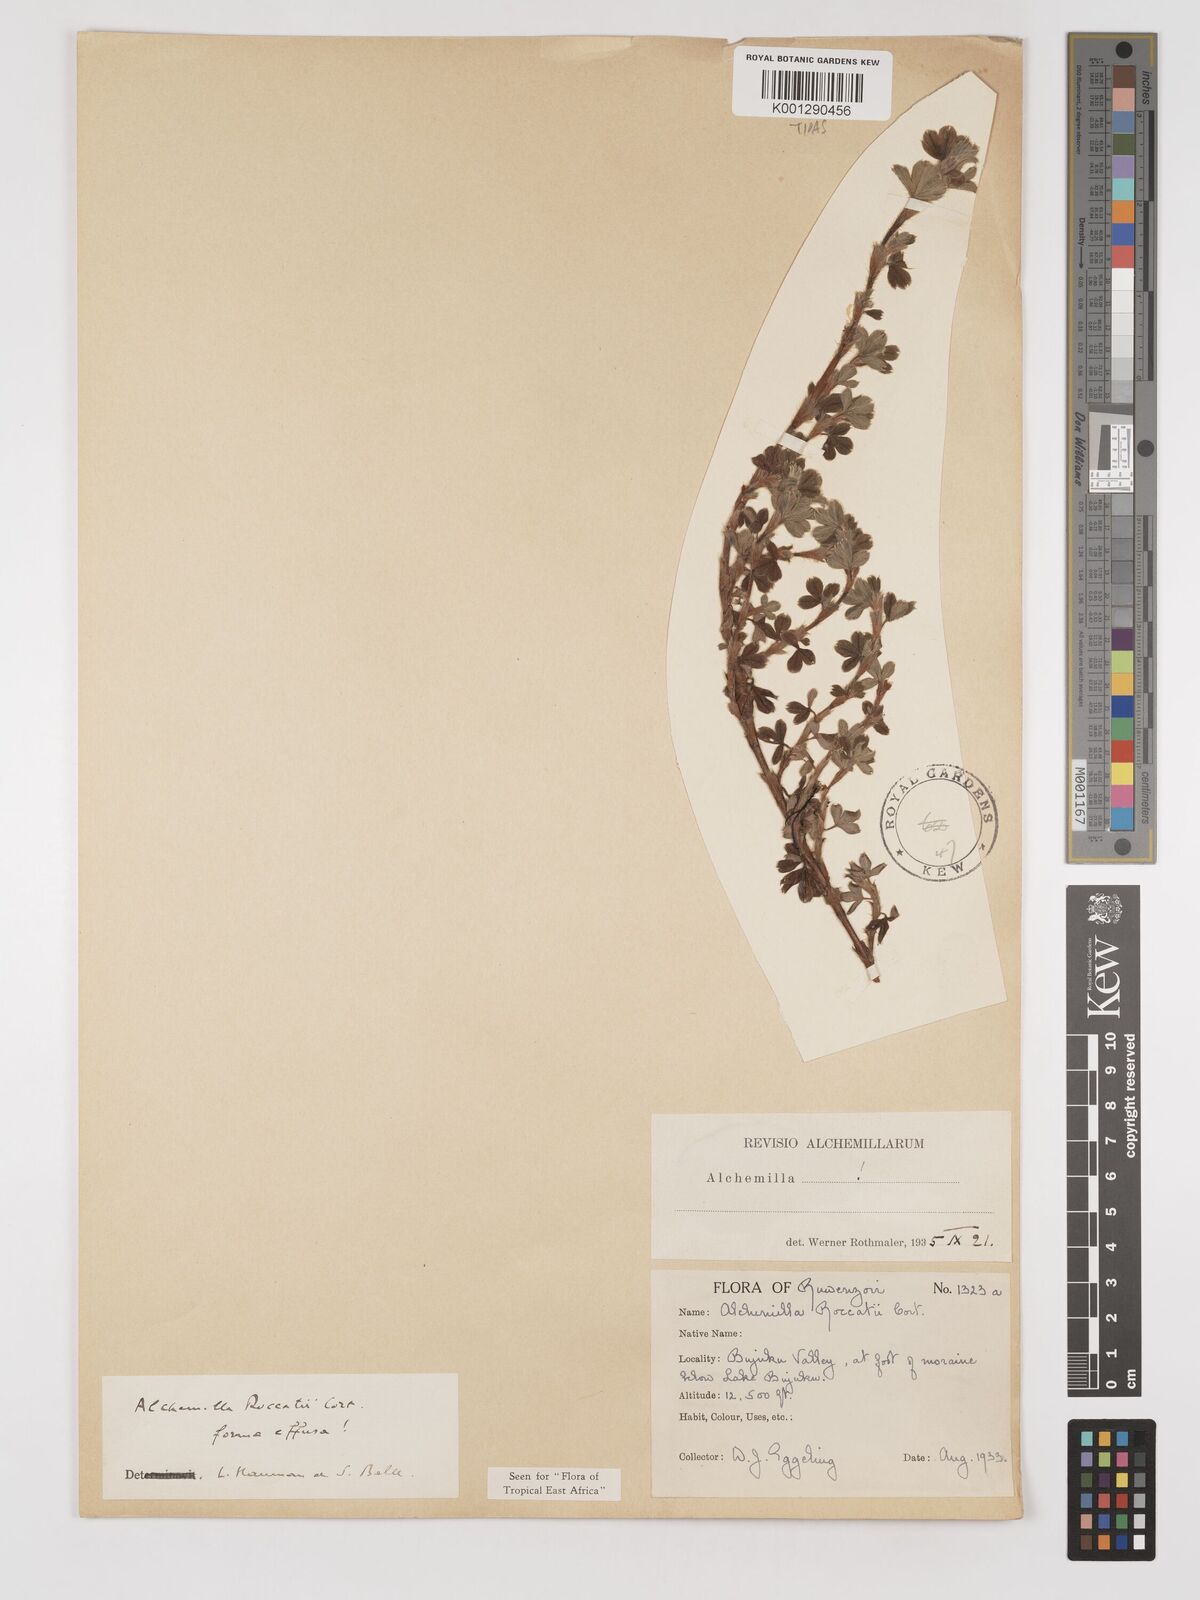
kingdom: Plantae
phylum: Tracheophyta
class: Magnoliopsida
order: Rosales
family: Rosaceae
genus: Alchemilla
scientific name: Alchemilla roccatii
